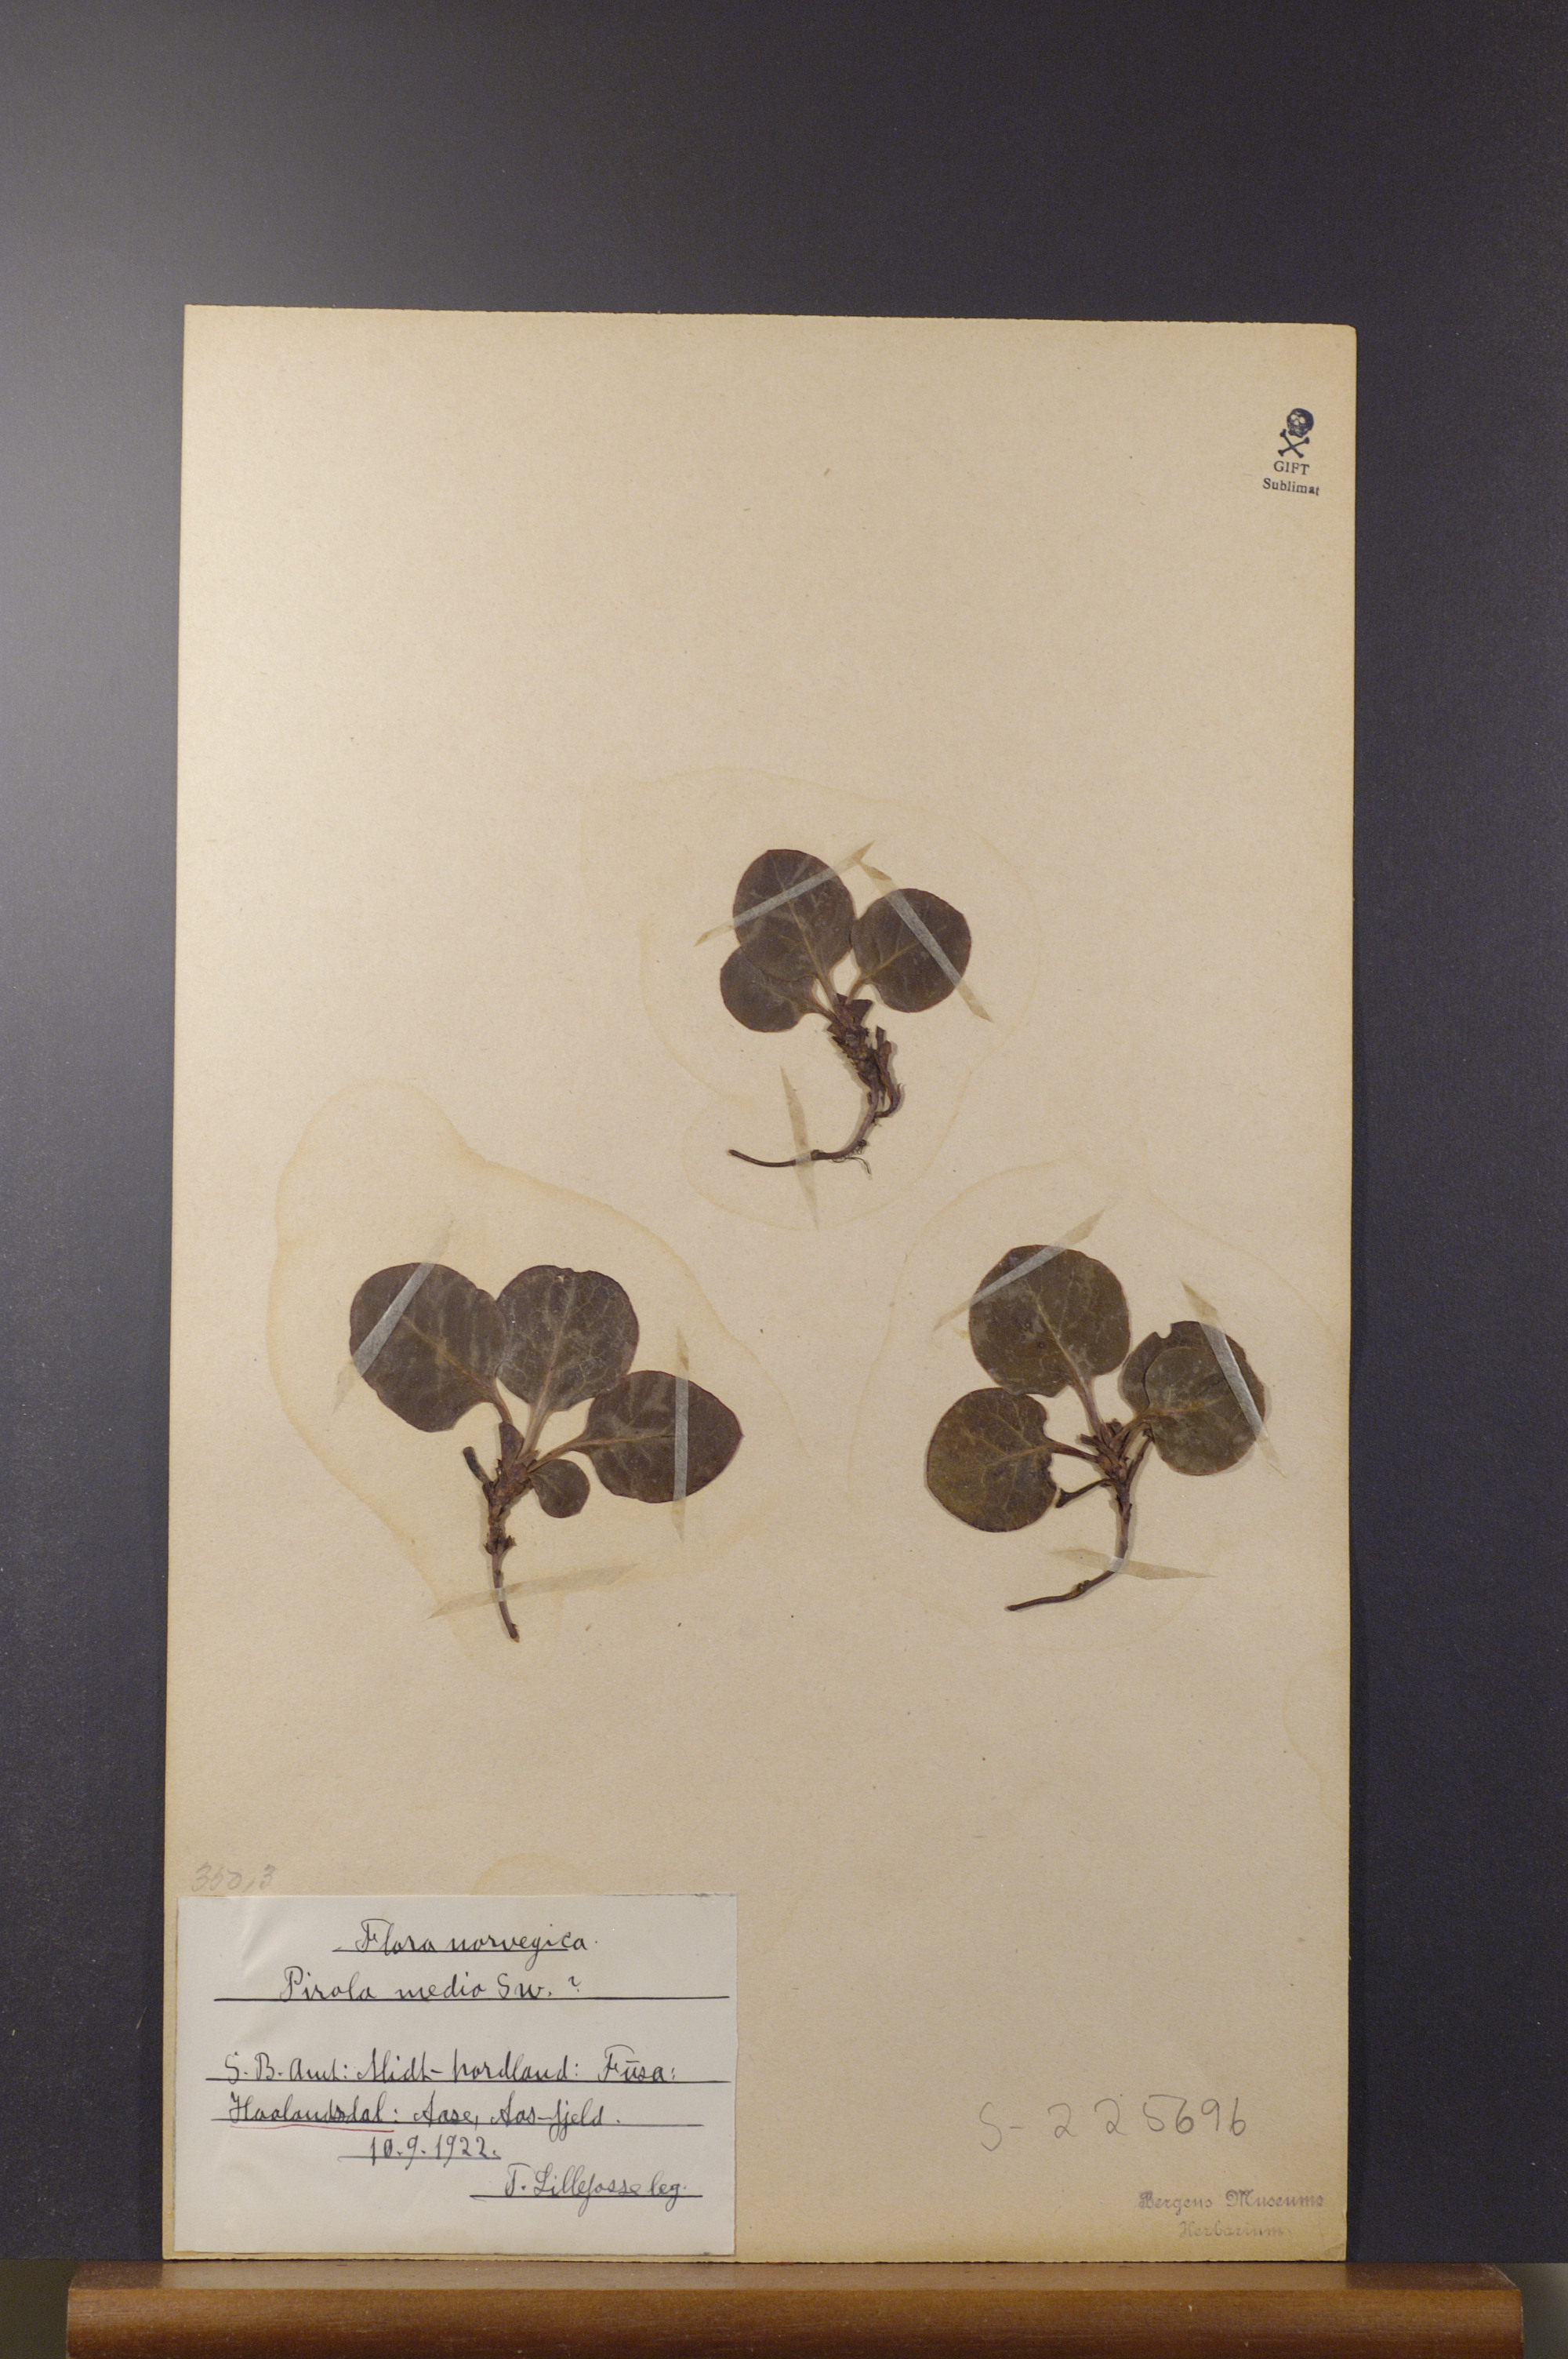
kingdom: Plantae
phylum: Tracheophyta
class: Magnoliopsida
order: Ericales
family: Ericaceae
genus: Pyrola
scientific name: Pyrola media
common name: Intermediate wintergreen
